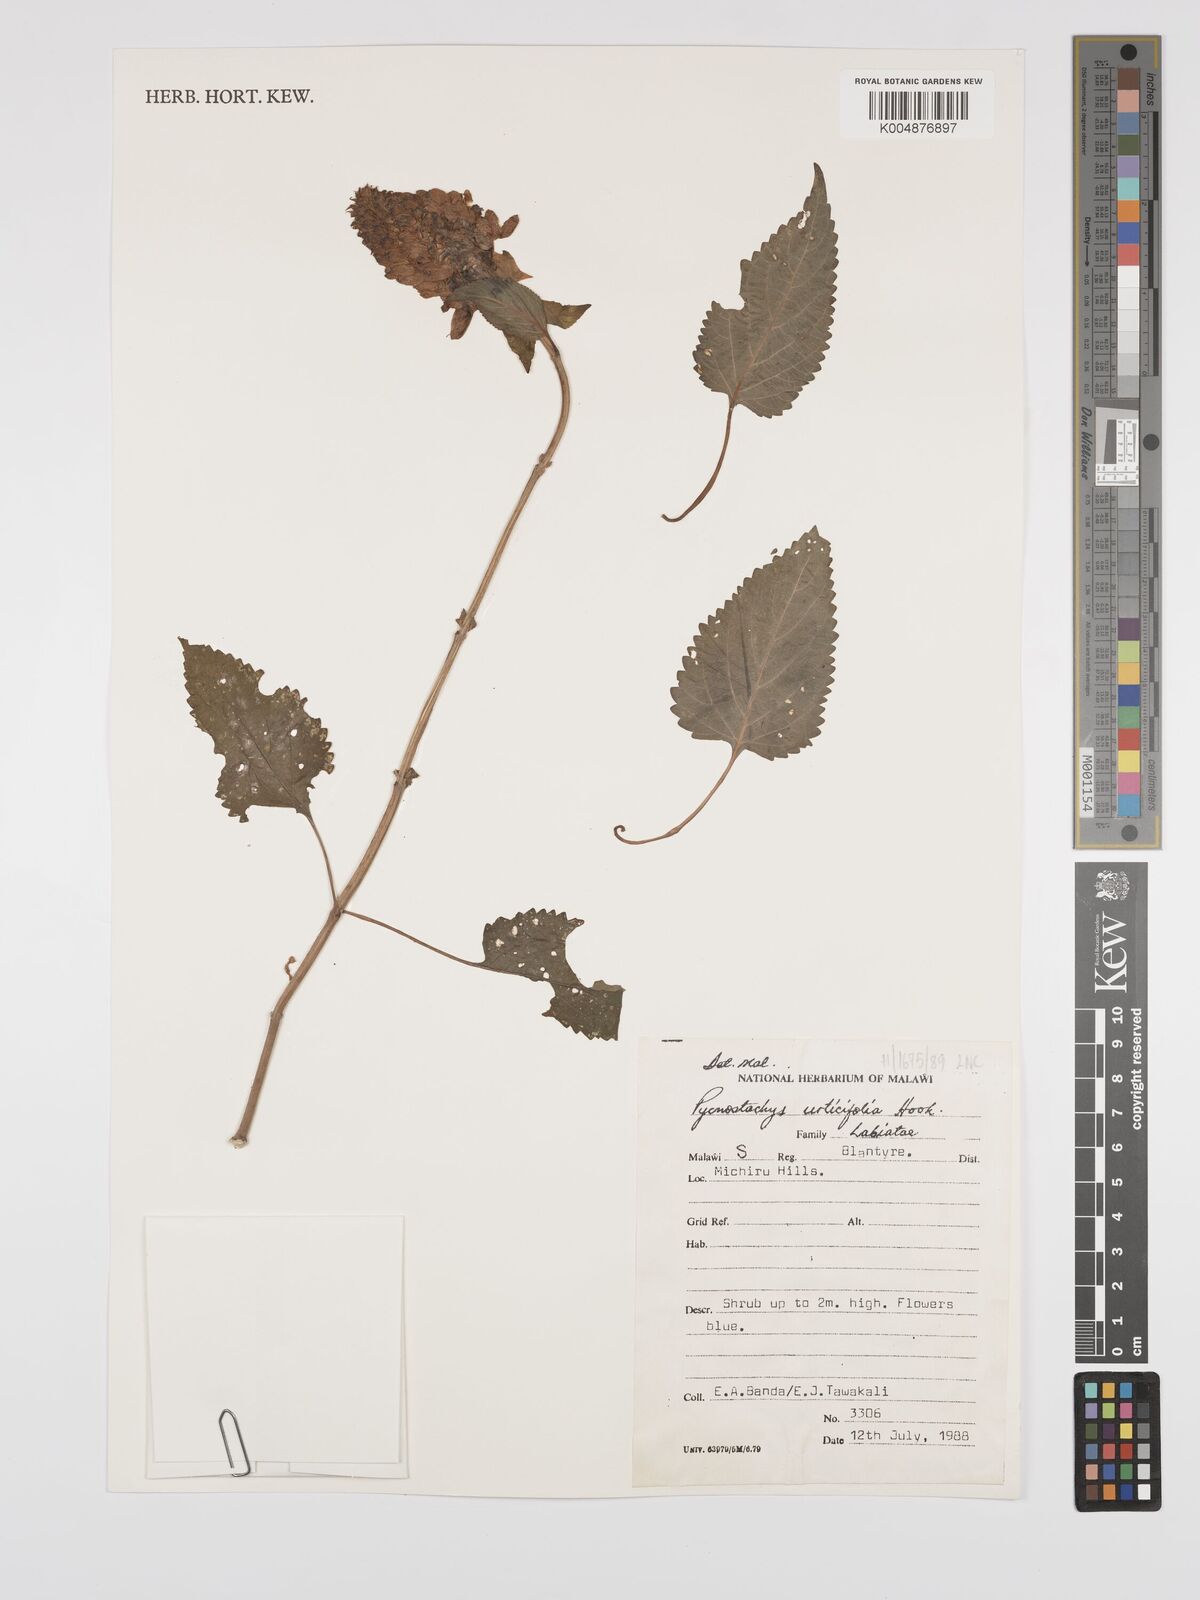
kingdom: Plantae
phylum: Tracheophyta
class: Magnoliopsida
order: Lamiales
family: Lamiaceae
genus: Coleus
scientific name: Coleus livingstonei
